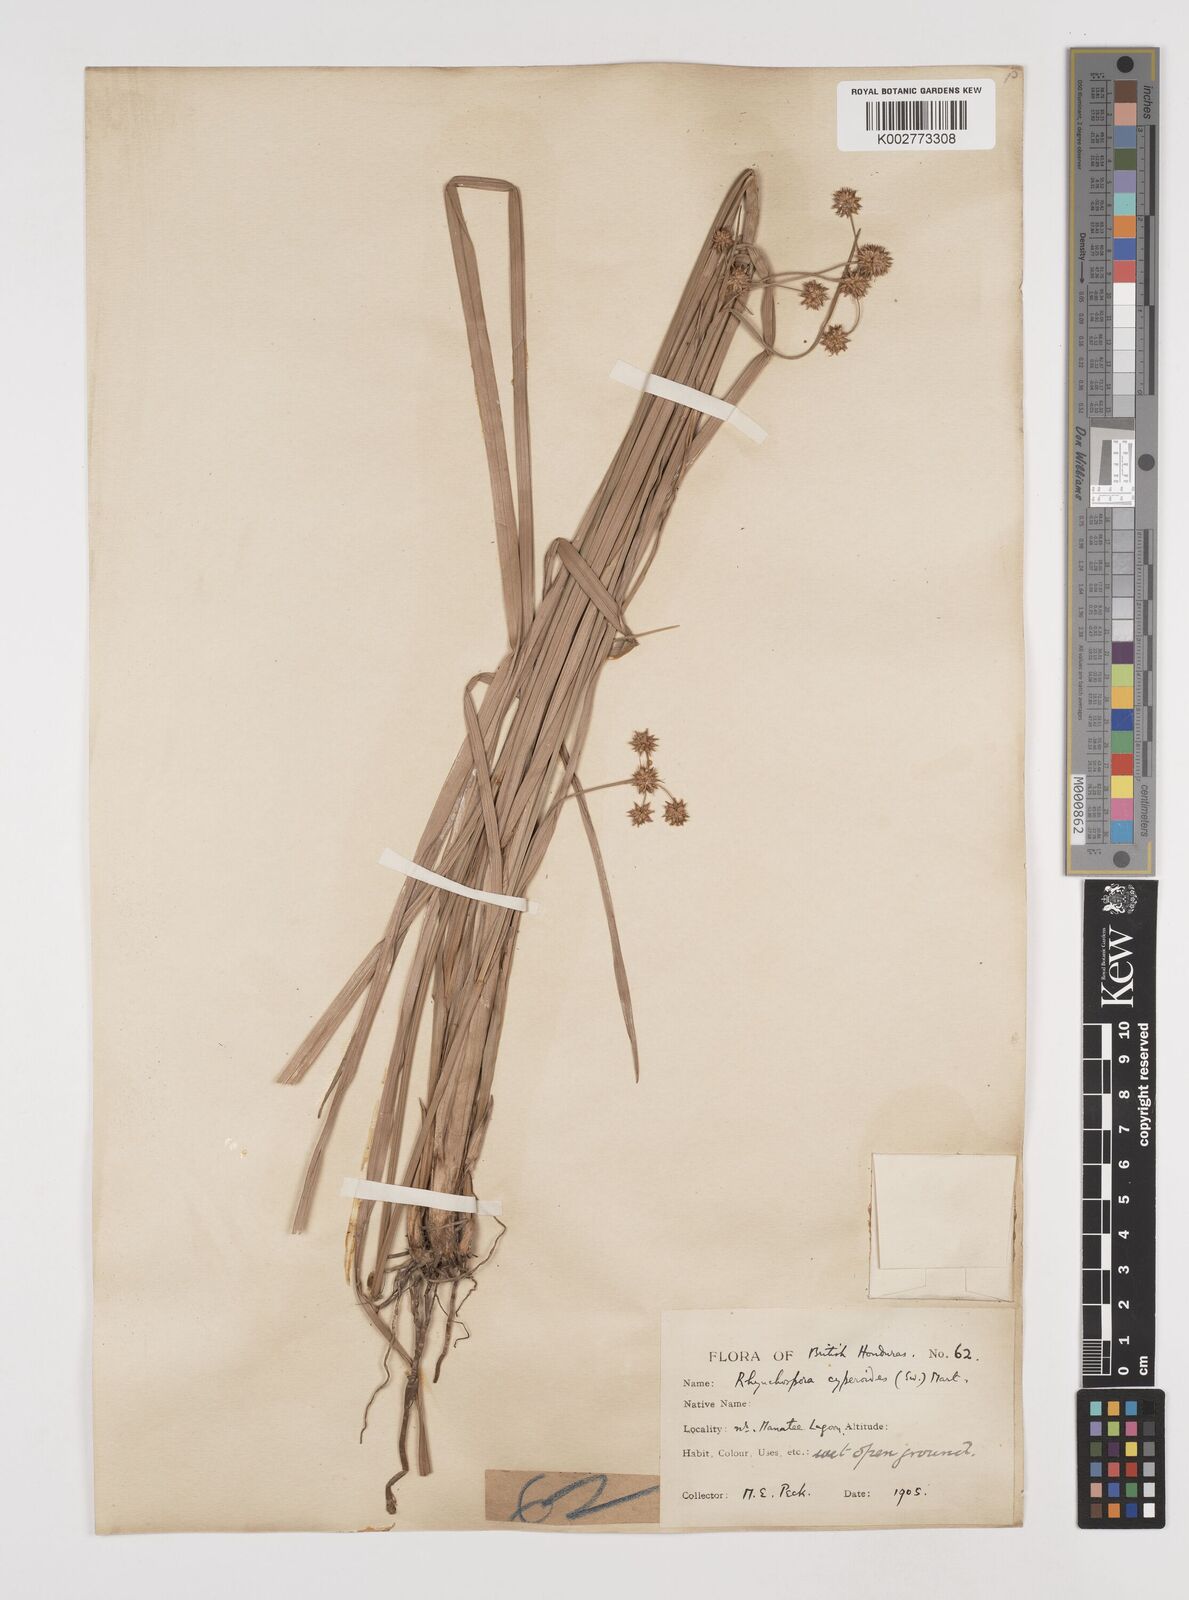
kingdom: Plantae
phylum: Tracheophyta
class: Liliopsida
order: Poales
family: Cyperaceae
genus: Rhynchospora
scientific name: Rhynchospora holoschoenoides
